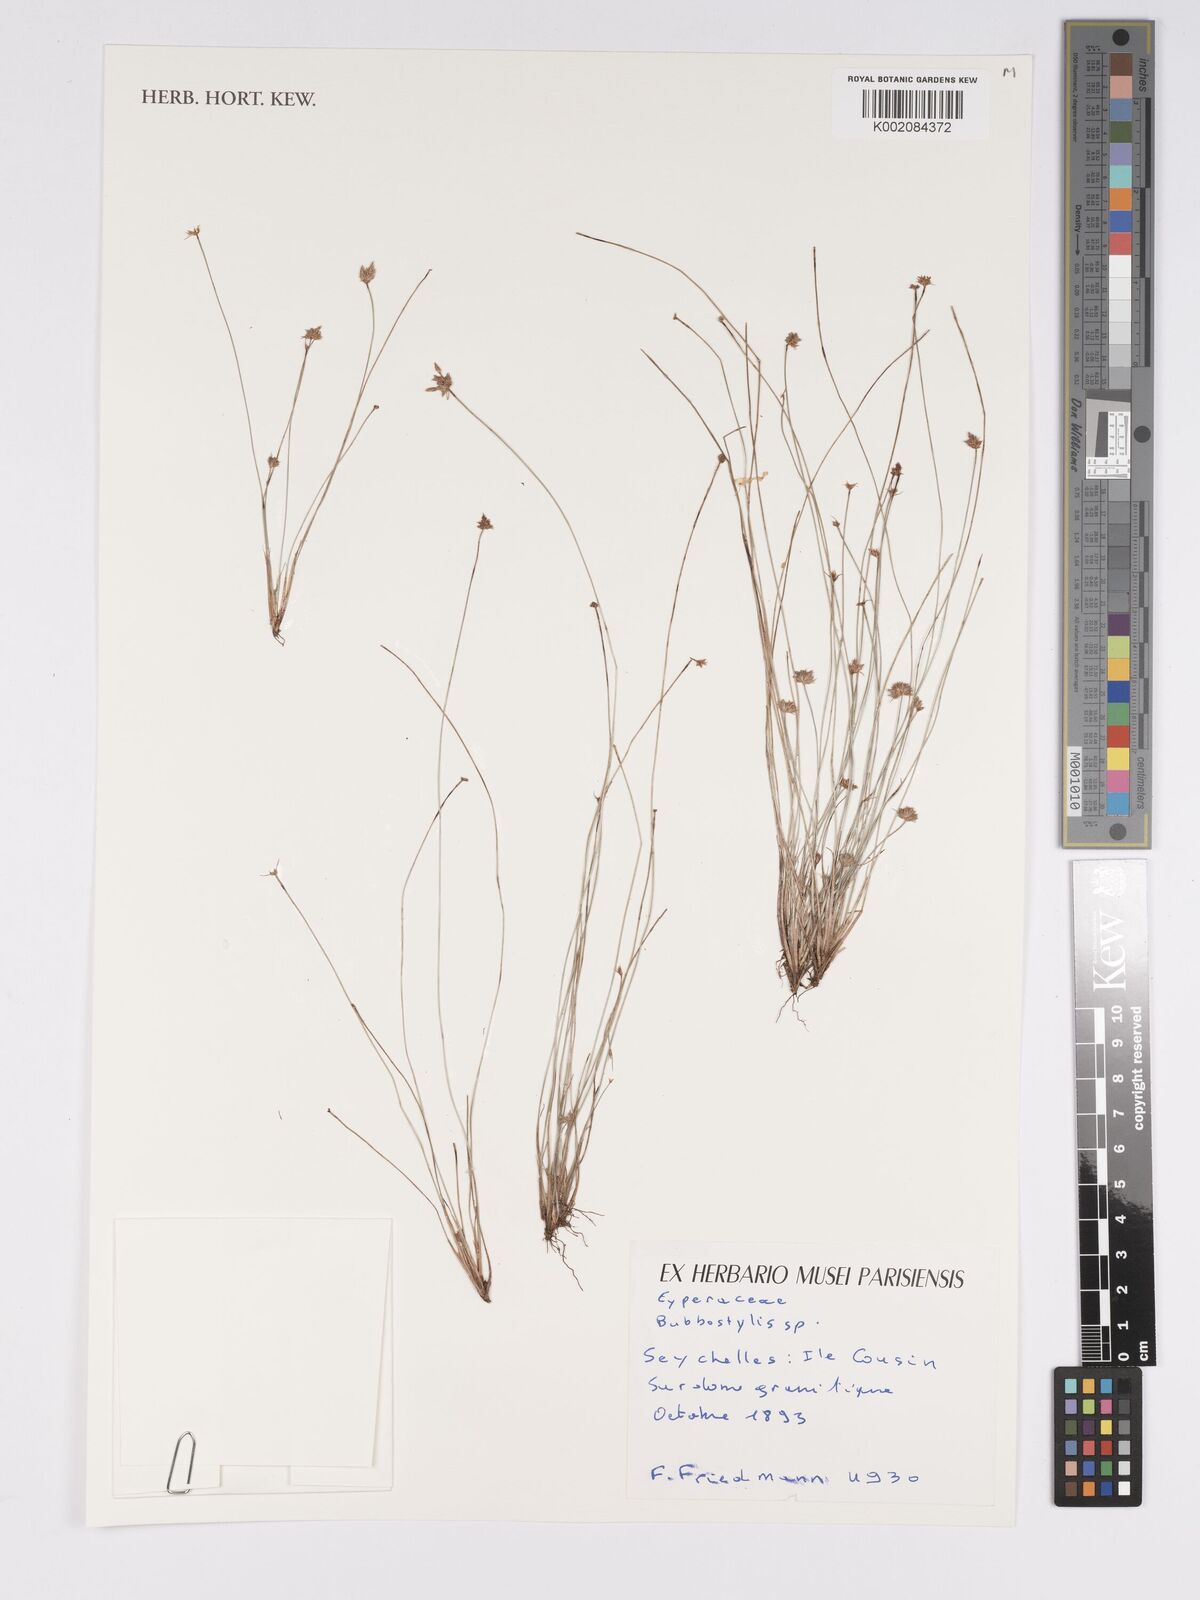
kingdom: Plantae
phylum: Tracheophyta
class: Liliopsida
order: Poales
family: Cyperaceae
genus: Bulbostylis
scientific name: Bulbostylis
